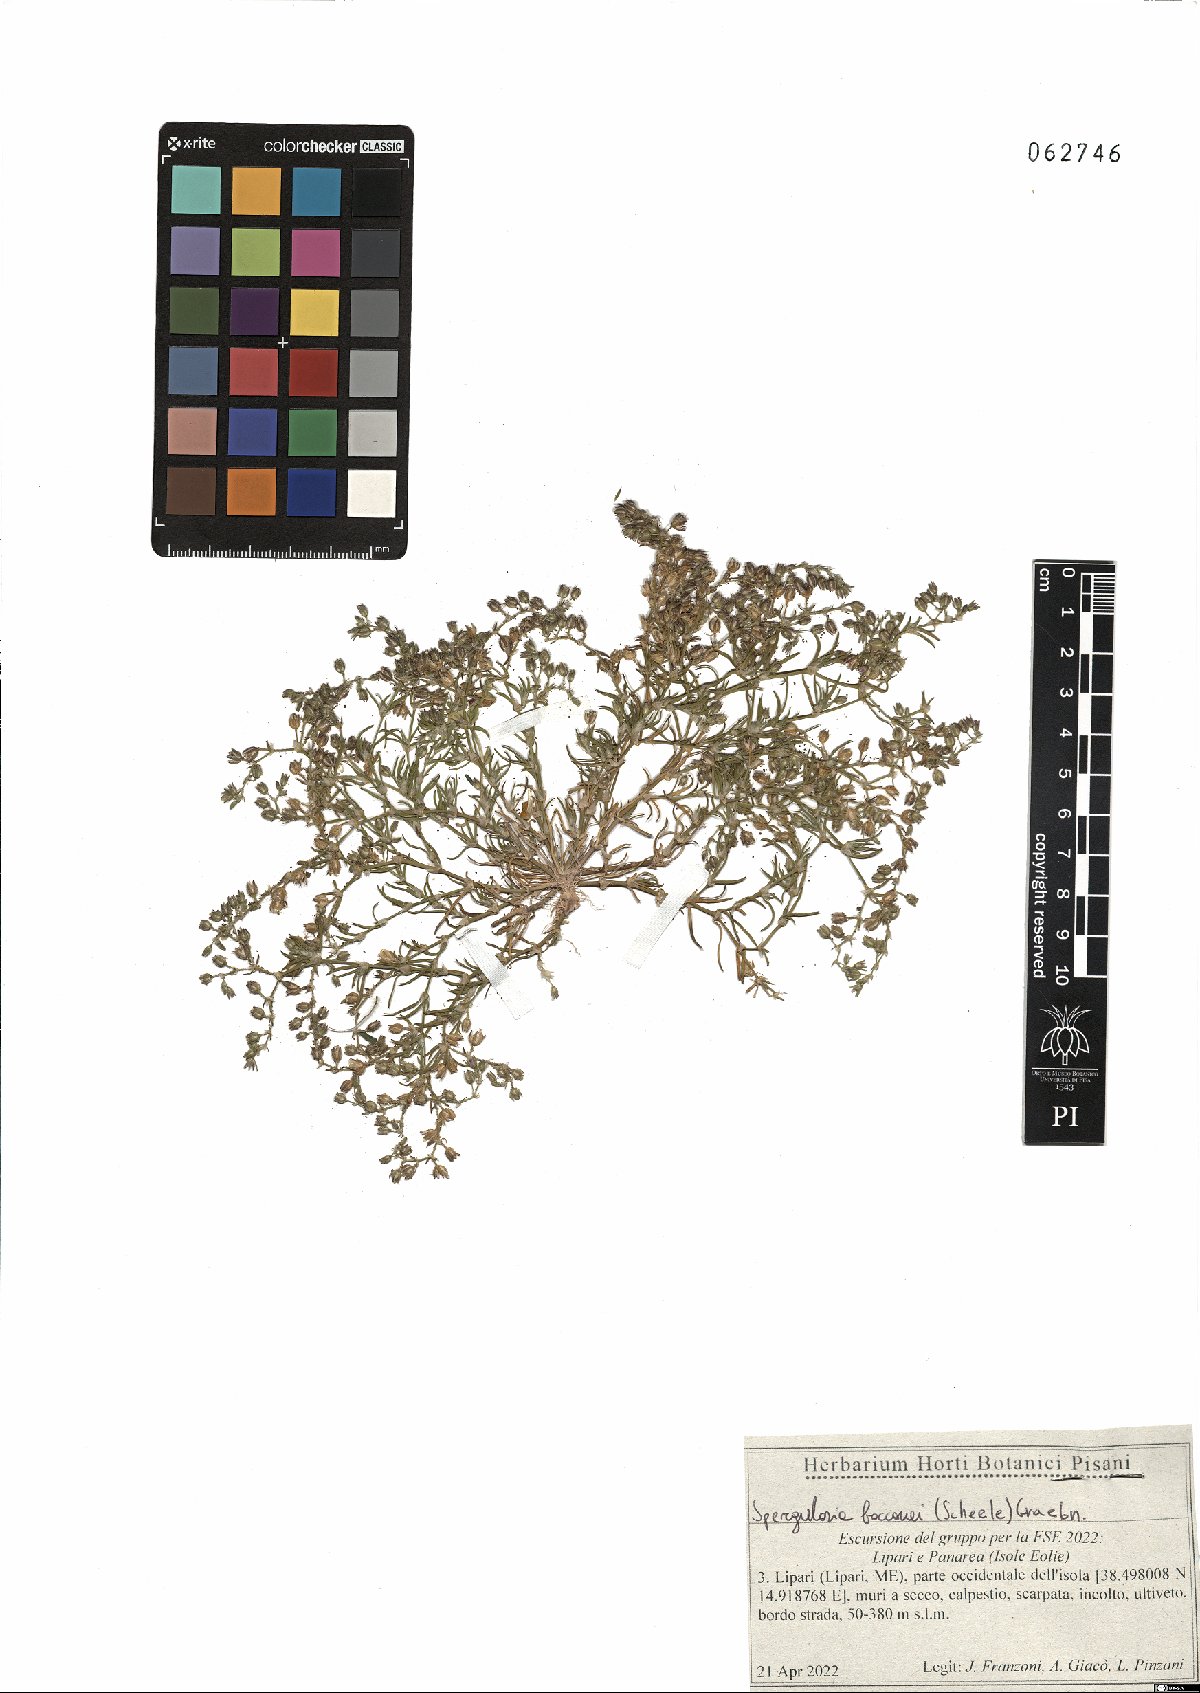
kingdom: Plantae
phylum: Tracheophyta
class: Magnoliopsida
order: Caryophyllales
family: Caryophyllaceae
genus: Spergularia
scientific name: Spergularia bocconei
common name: Greek sea-spurrey
